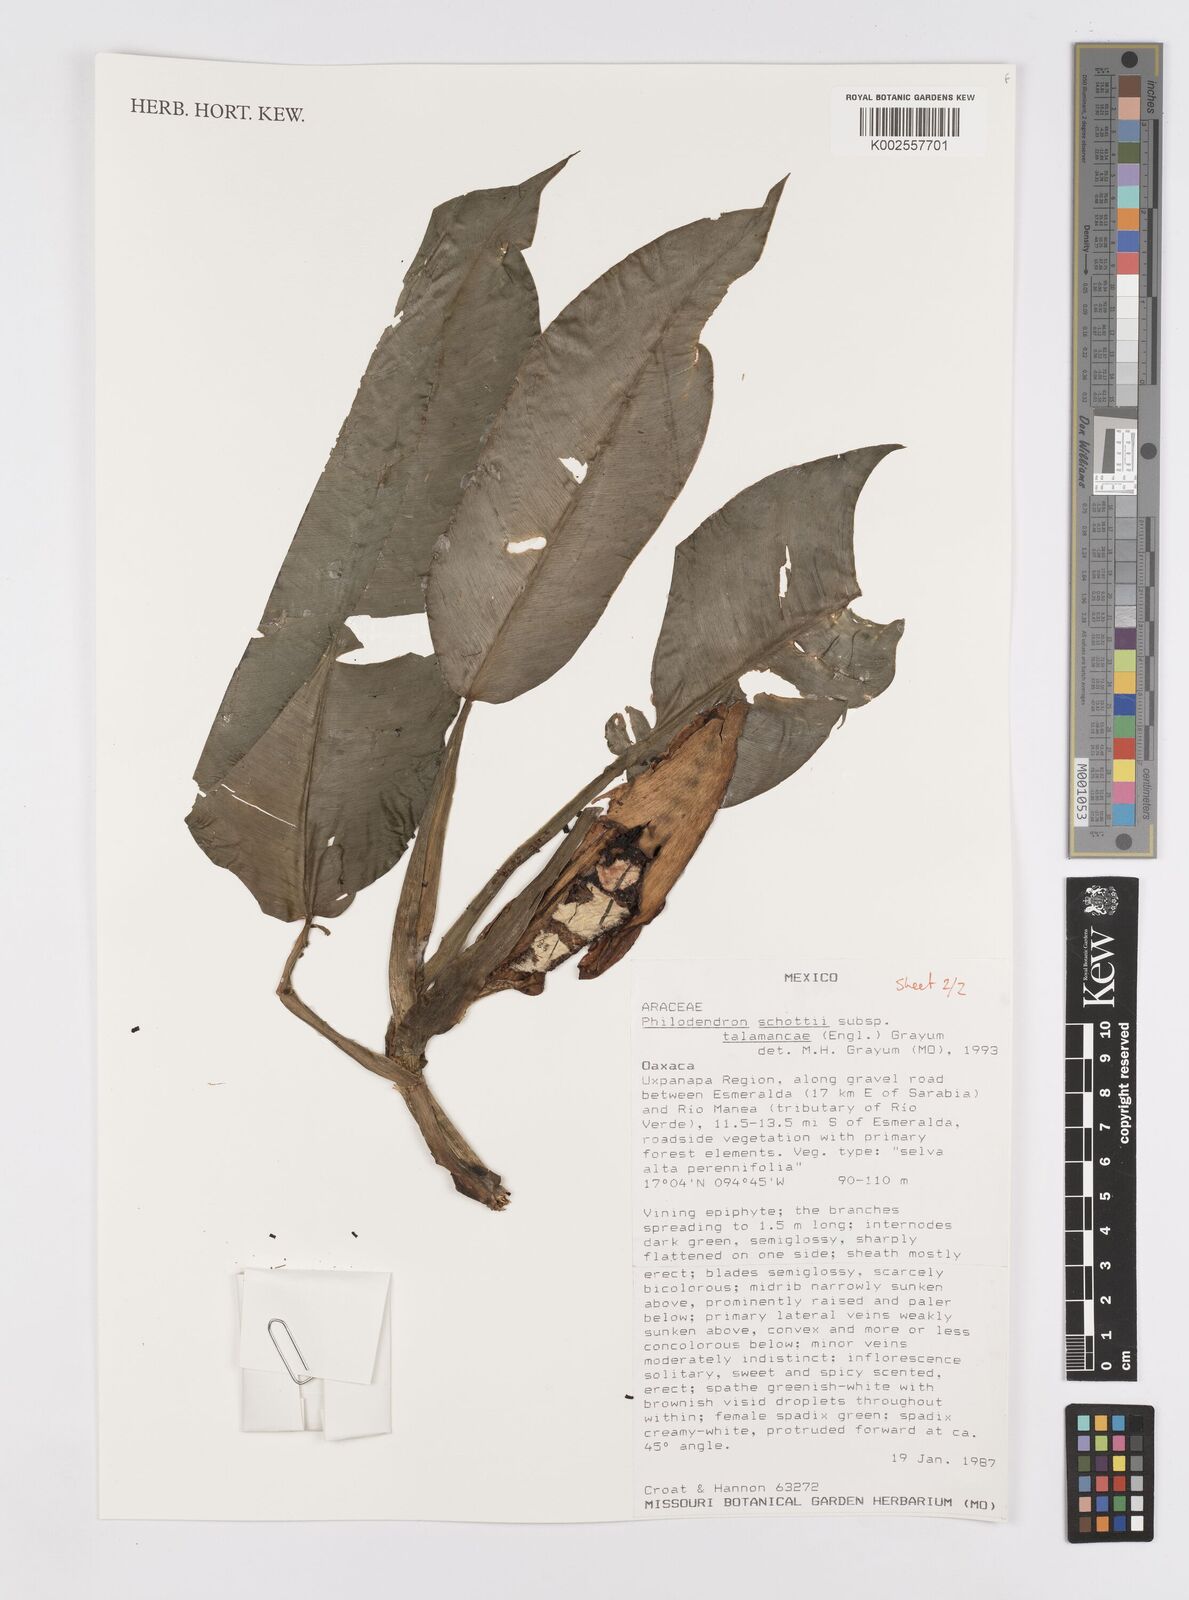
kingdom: Plantae
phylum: Tracheophyta
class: Liliopsida
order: Alismatales
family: Araceae
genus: Philodendron
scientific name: Philodendron schottii
